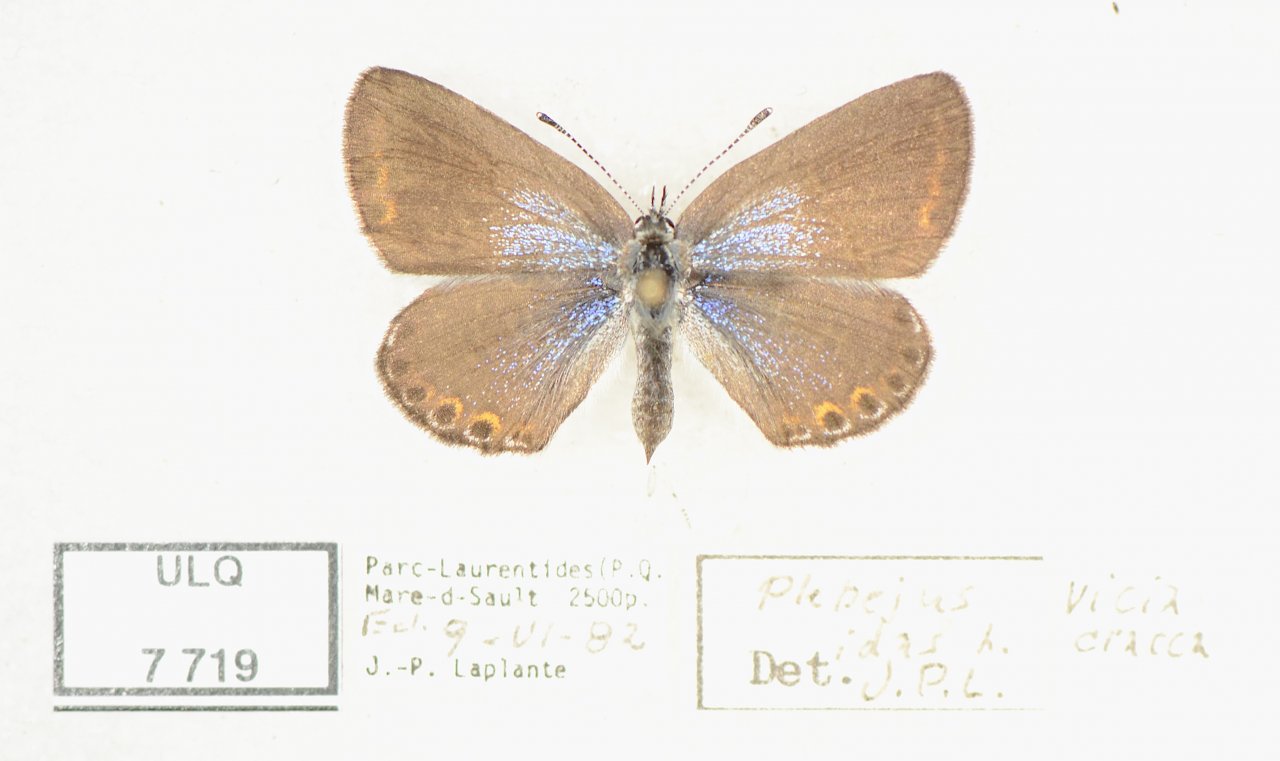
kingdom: Animalia
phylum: Arthropoda
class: Insecta
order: Lepidoptera
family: Lycaenidae
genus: Lycaeides
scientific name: Lycaeides idas
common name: Northern Blue
